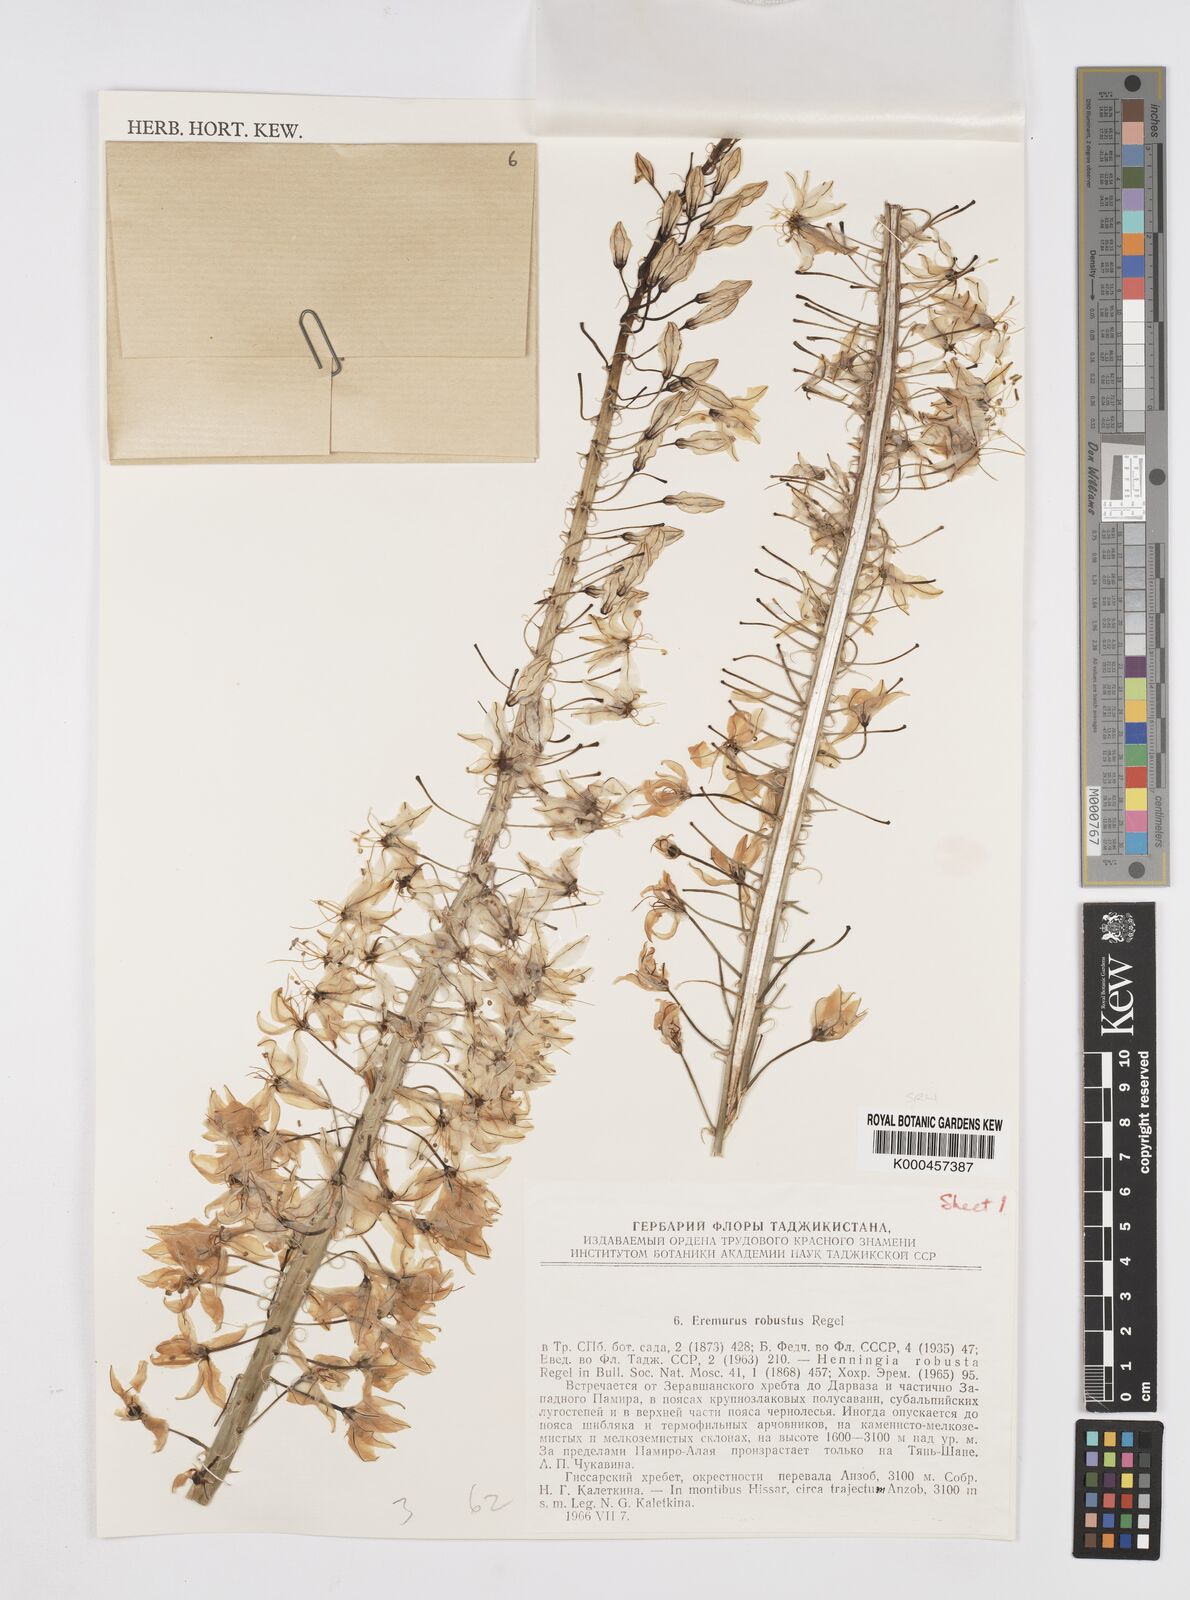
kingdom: Plantae
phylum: Tracheophyta
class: Liliopsida
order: Asparagales
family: Asphodelaceae
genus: Eremurus
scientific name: Eremurus robustus
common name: Foxtail lily
